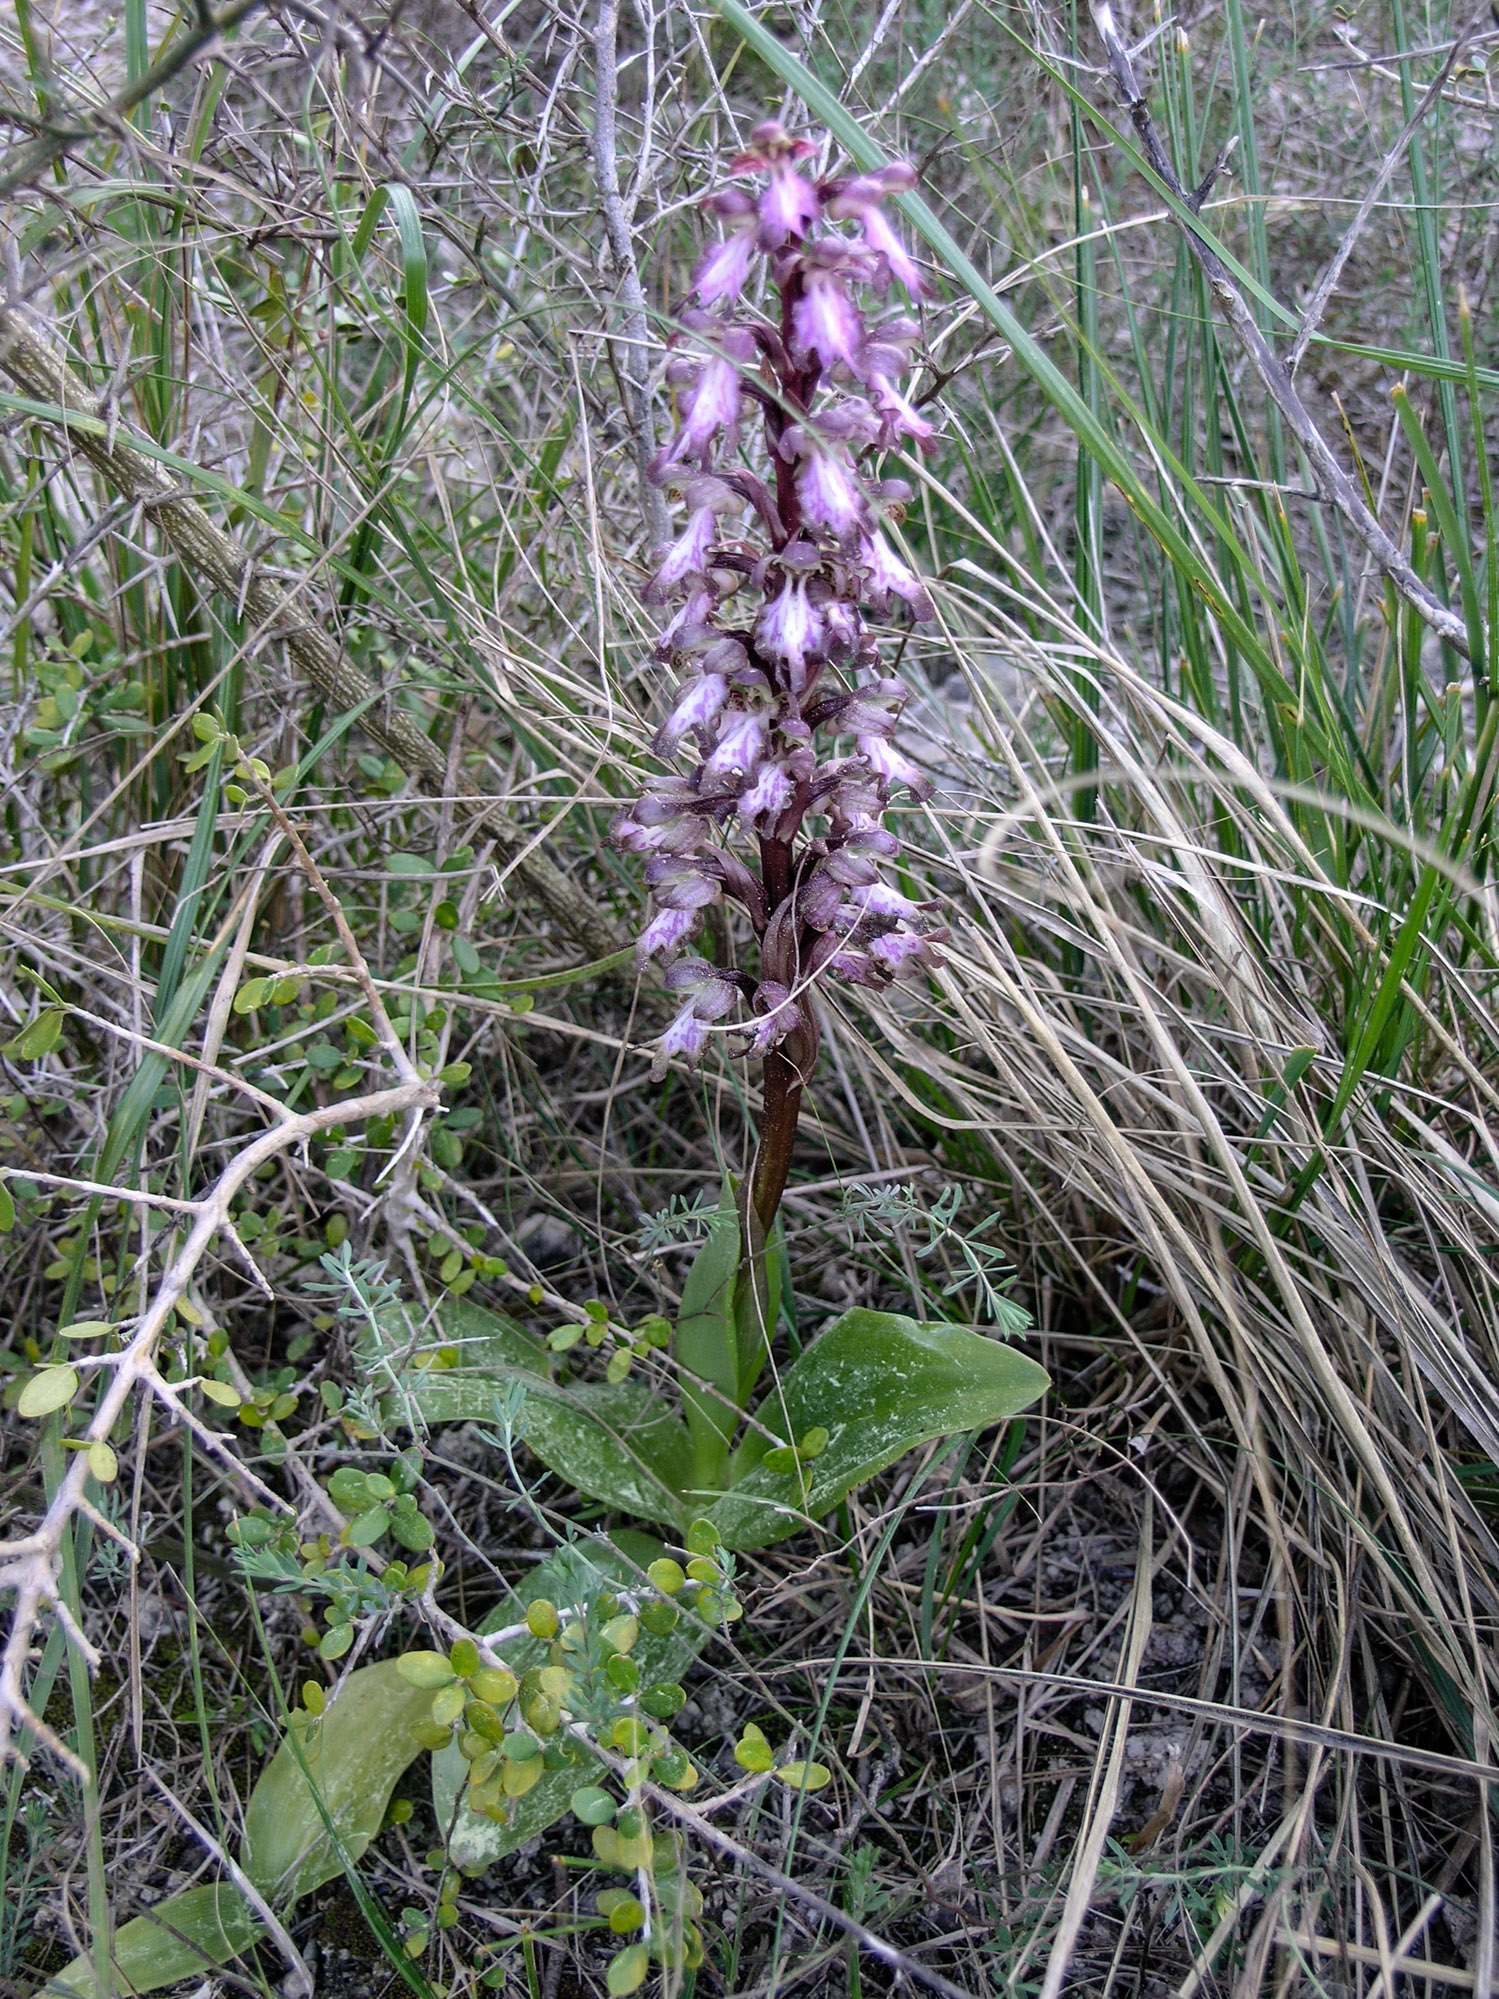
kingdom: Plantae
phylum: Tracheophyta
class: Liliopsida
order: Asparagales
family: Orchidaceae
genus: Himantoglossum
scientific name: Himantoglossum robertianum
